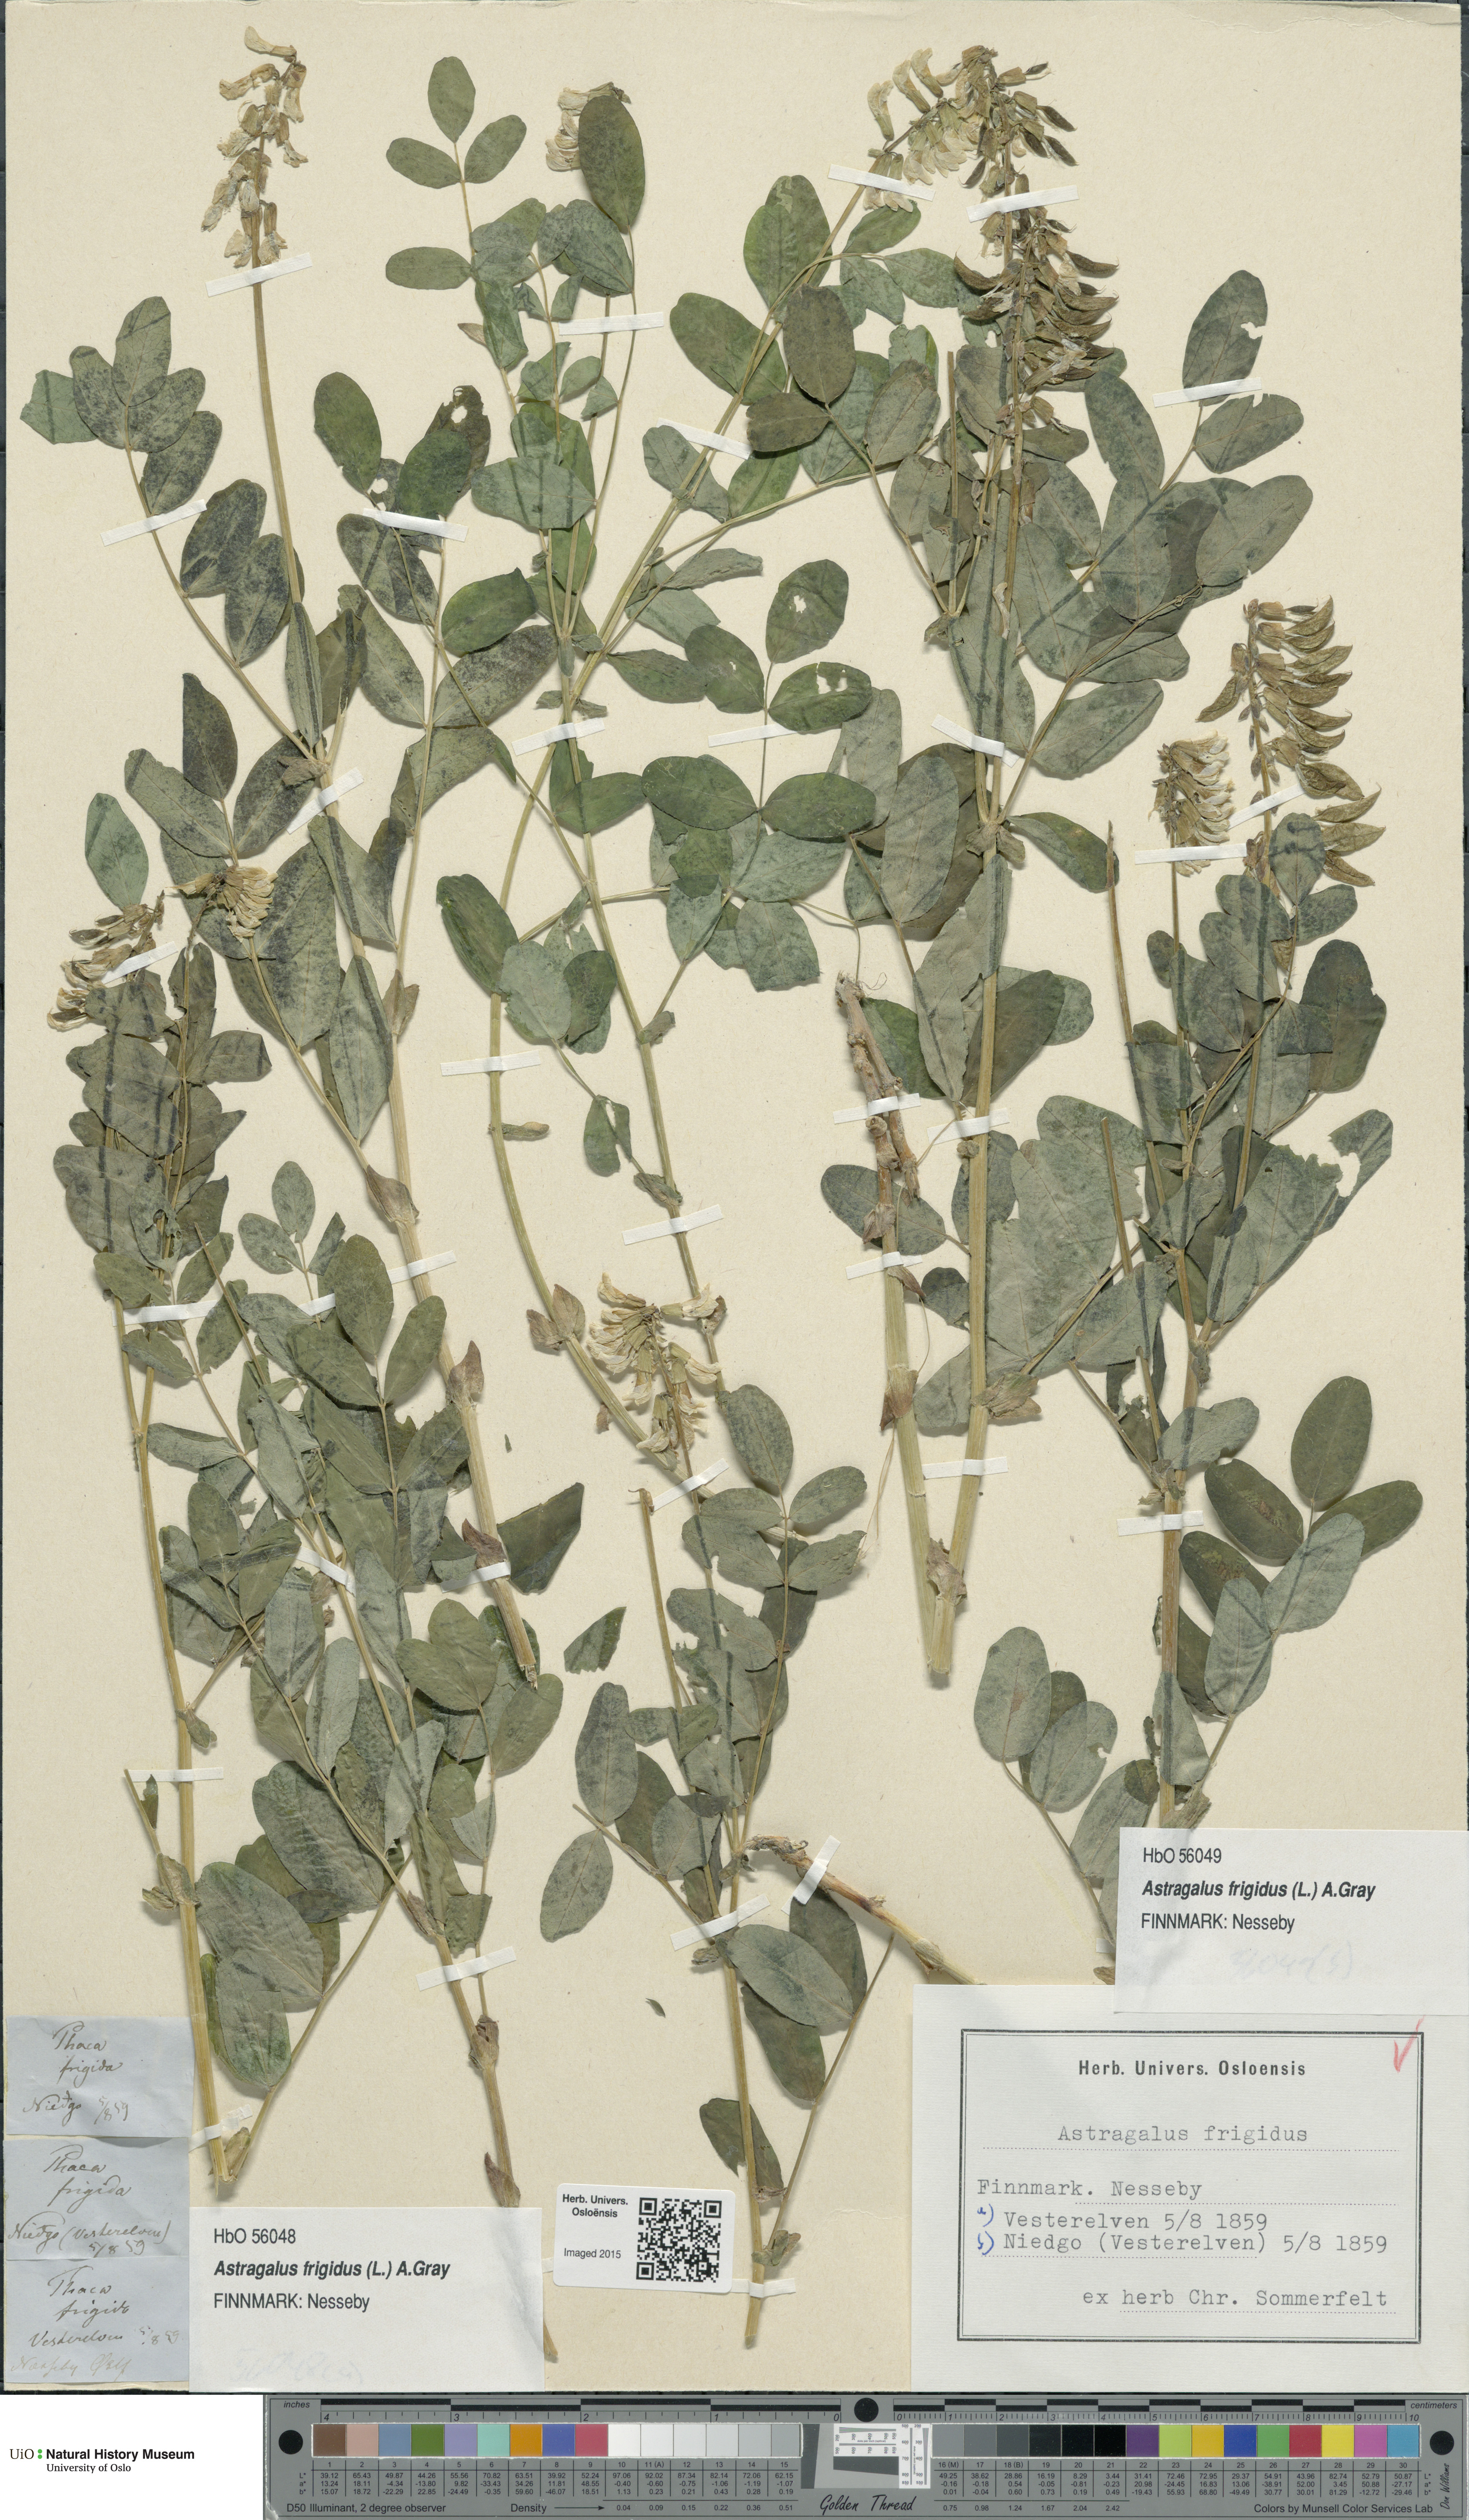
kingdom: Plantae
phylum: Tracheophyta
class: Magnoliopsida
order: Fabales
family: Fabaceae
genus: Astragalus
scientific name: Astragalus frigidus
